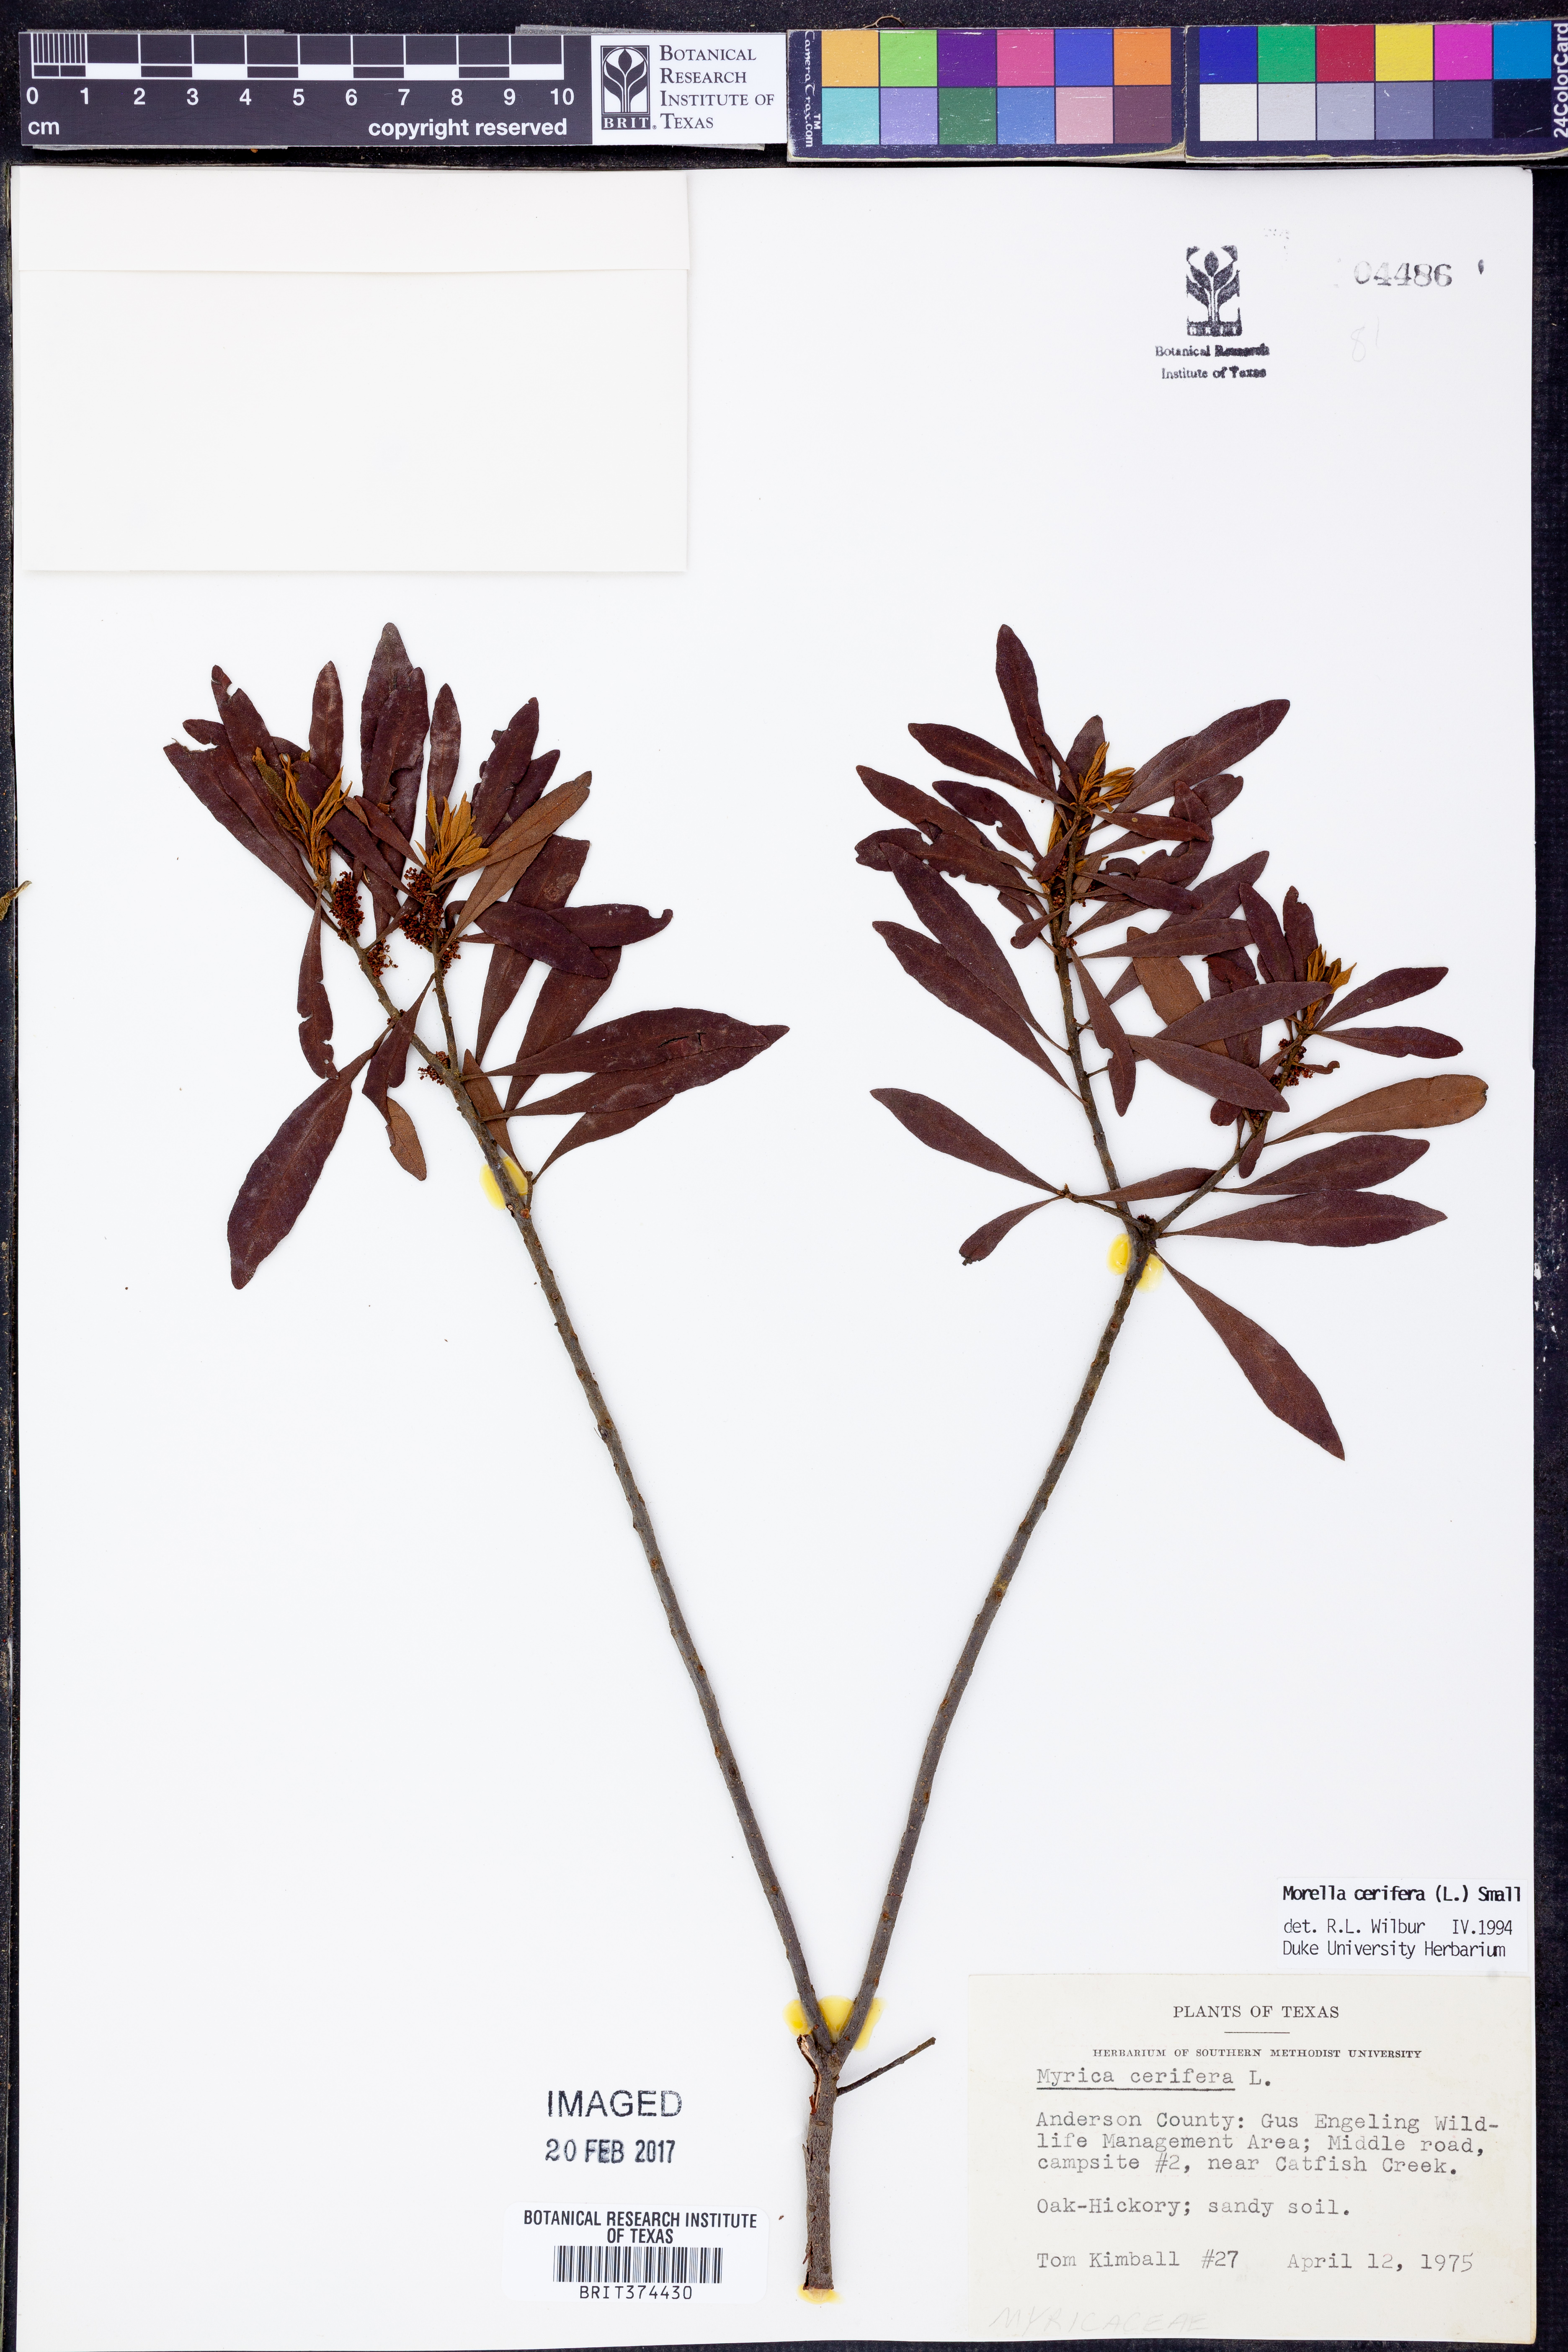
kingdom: Plantae
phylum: Tracheophyta
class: Magnoliopsida
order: Fagales
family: Myricaceae
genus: Morella
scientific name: Morella cerifera
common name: Wax myrtle
